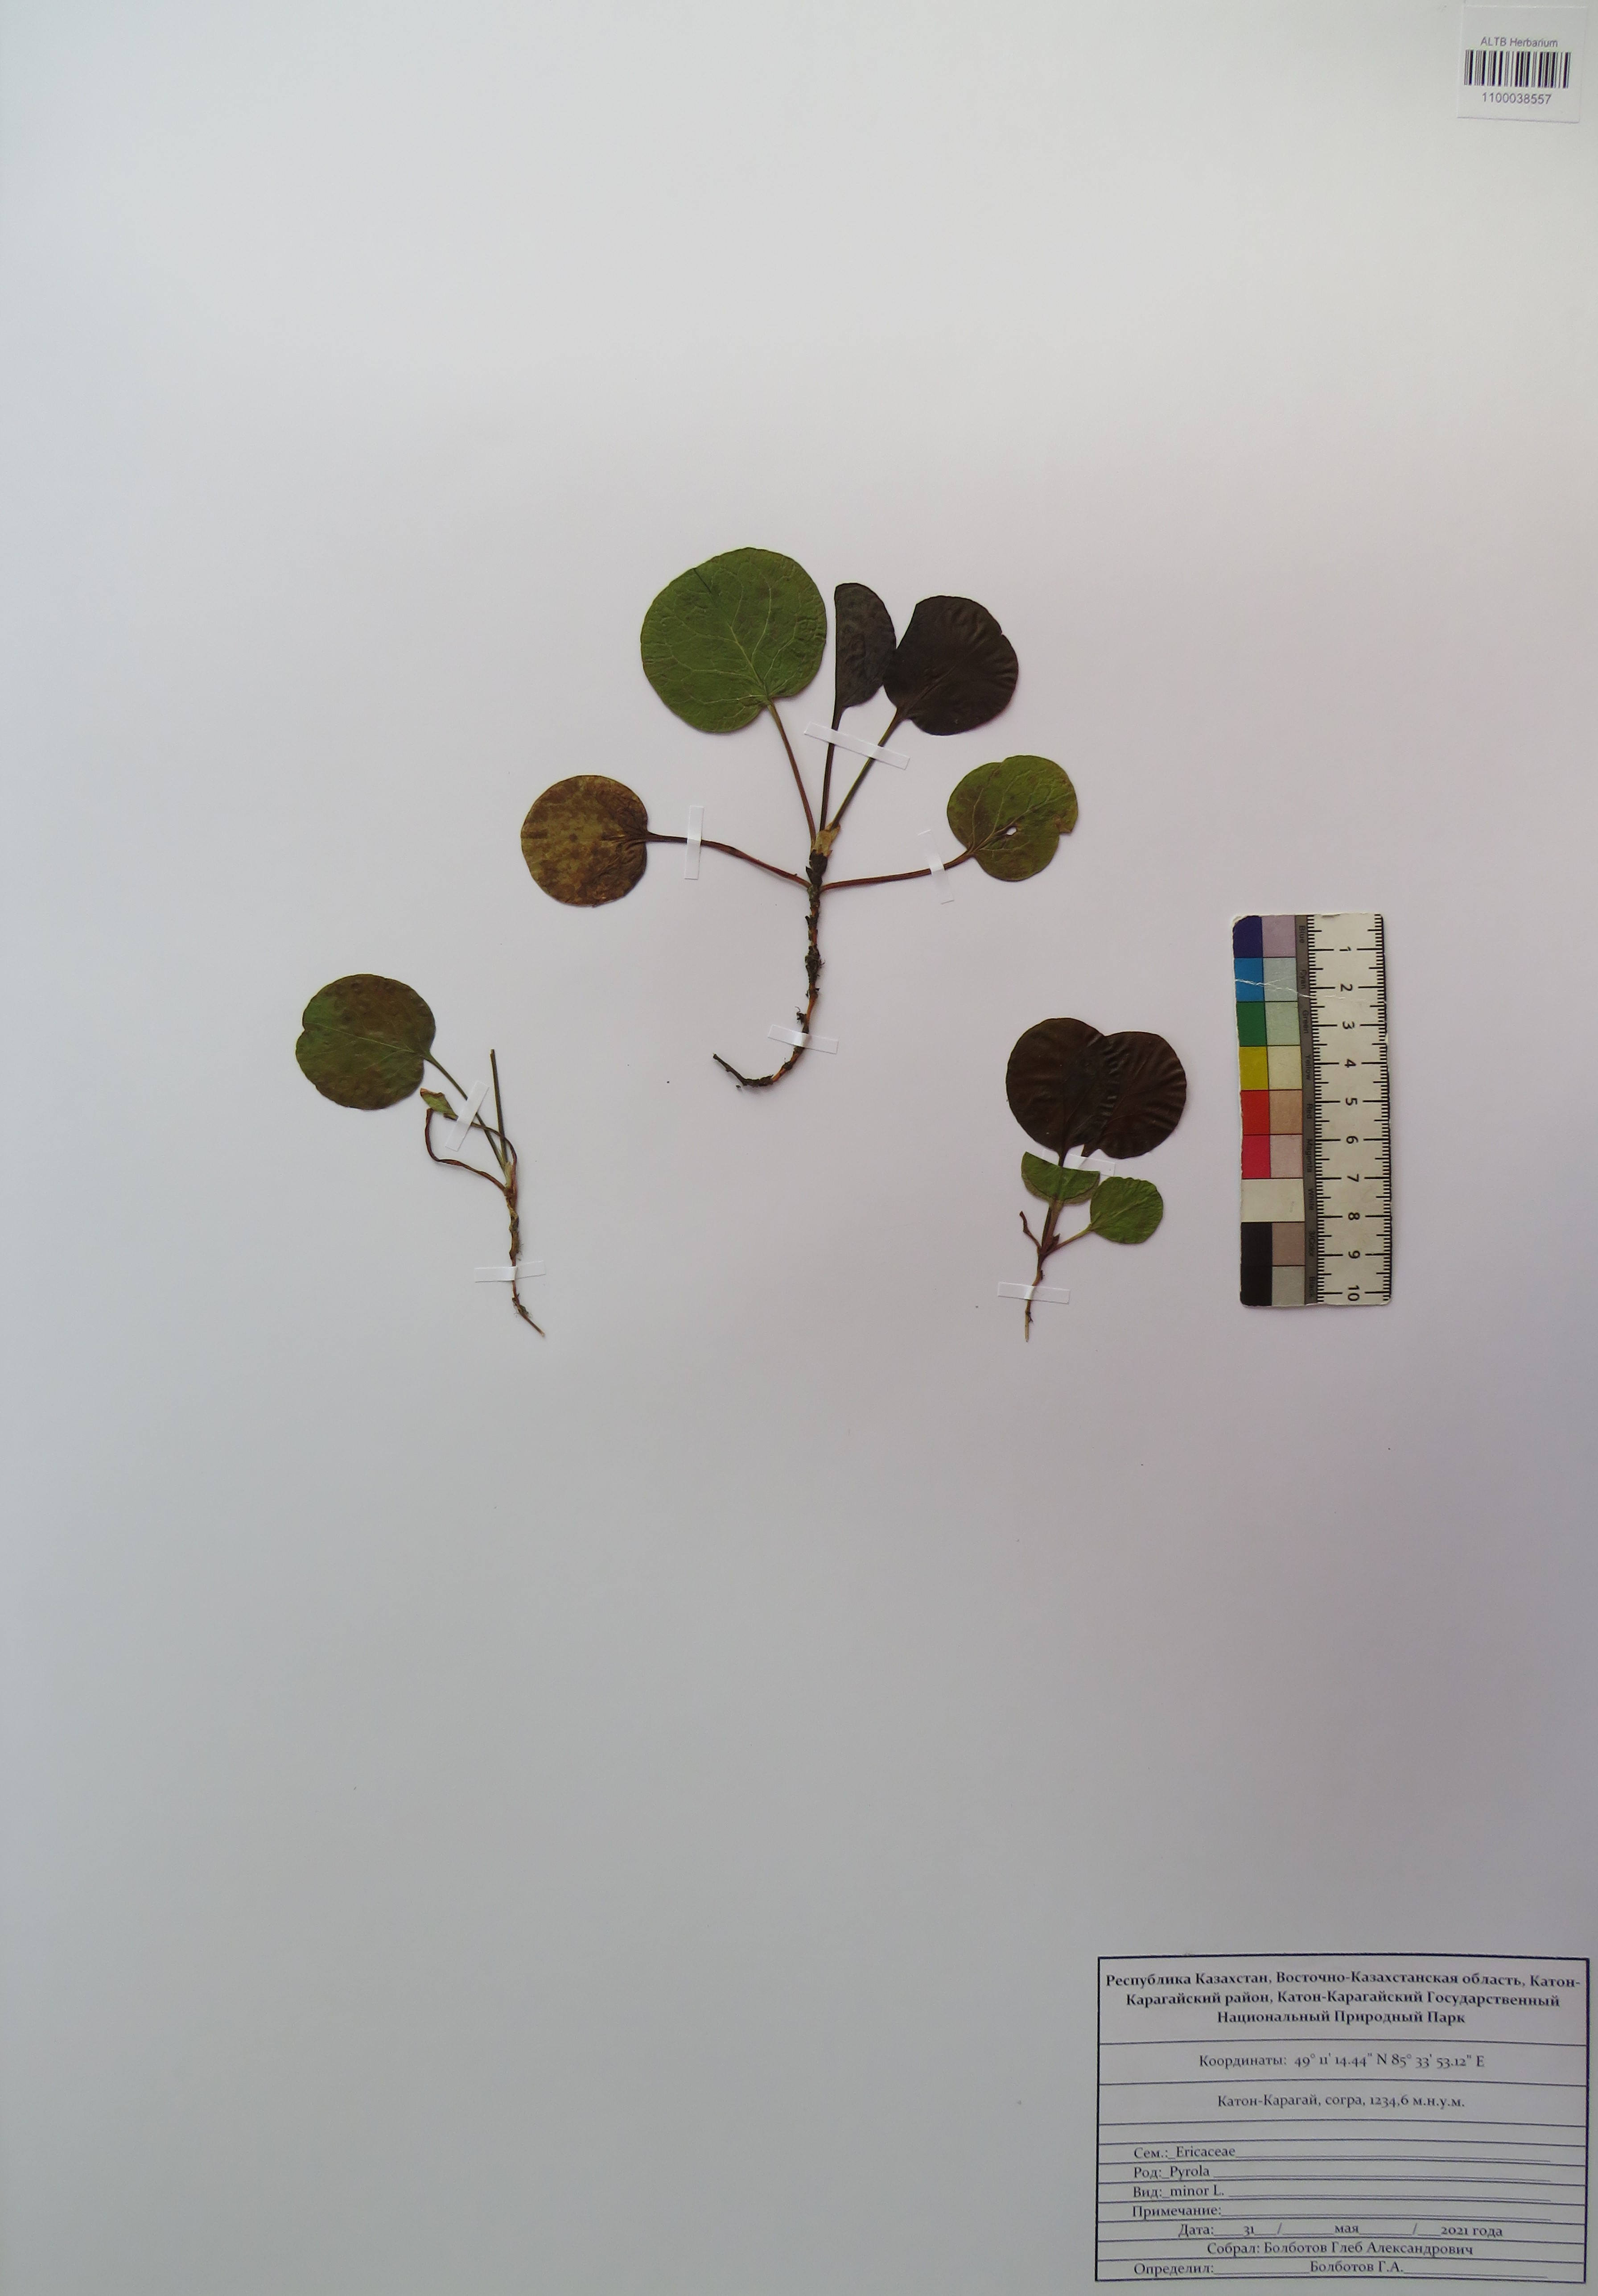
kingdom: Plantae
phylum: Tracheophyta
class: Magnoliopsida
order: Ericales
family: Ericaceae
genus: Pyrola
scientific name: Pyrola minor
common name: Common wintergreen
